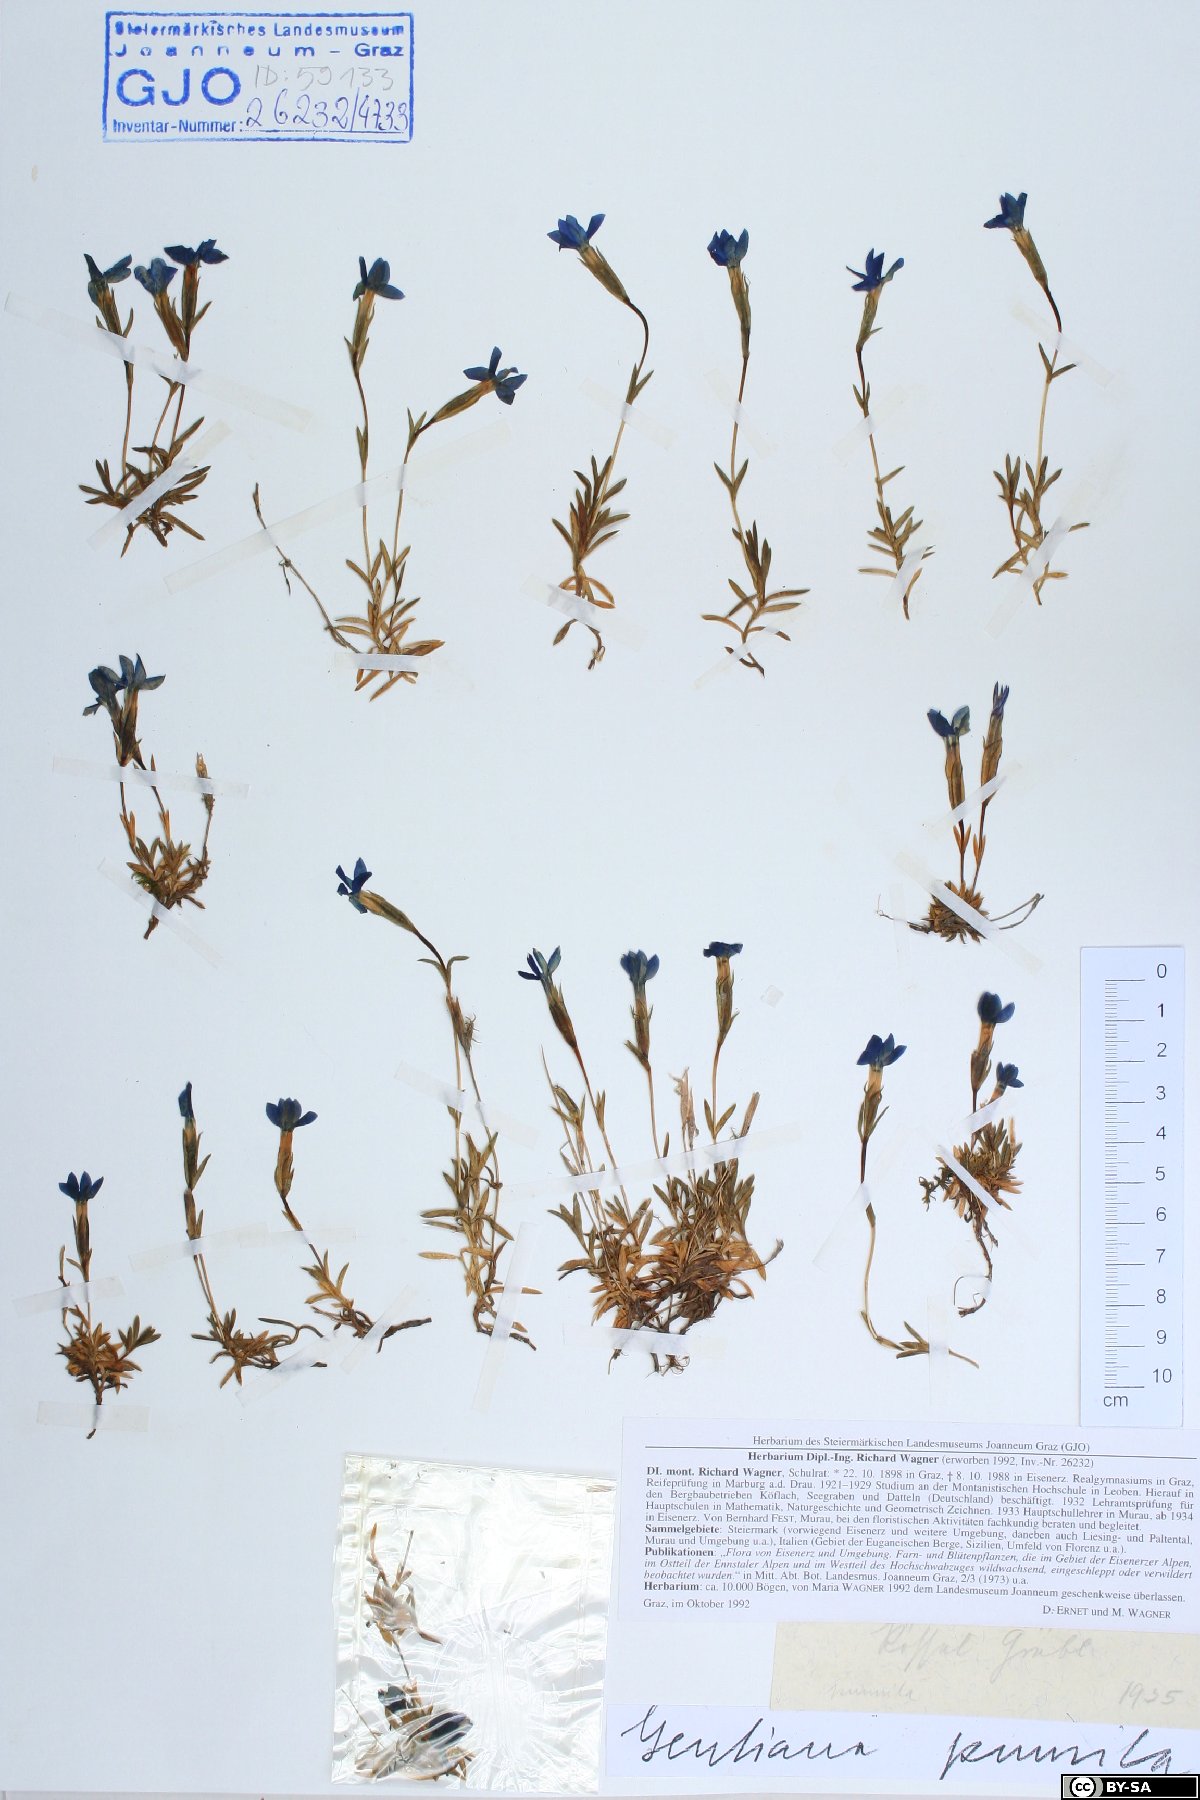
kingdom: Plantae
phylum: Tracheophyta
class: Magnoliopsida
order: Gentianales
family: Gentianaceae
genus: Gentiana
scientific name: Gentiana pumila
